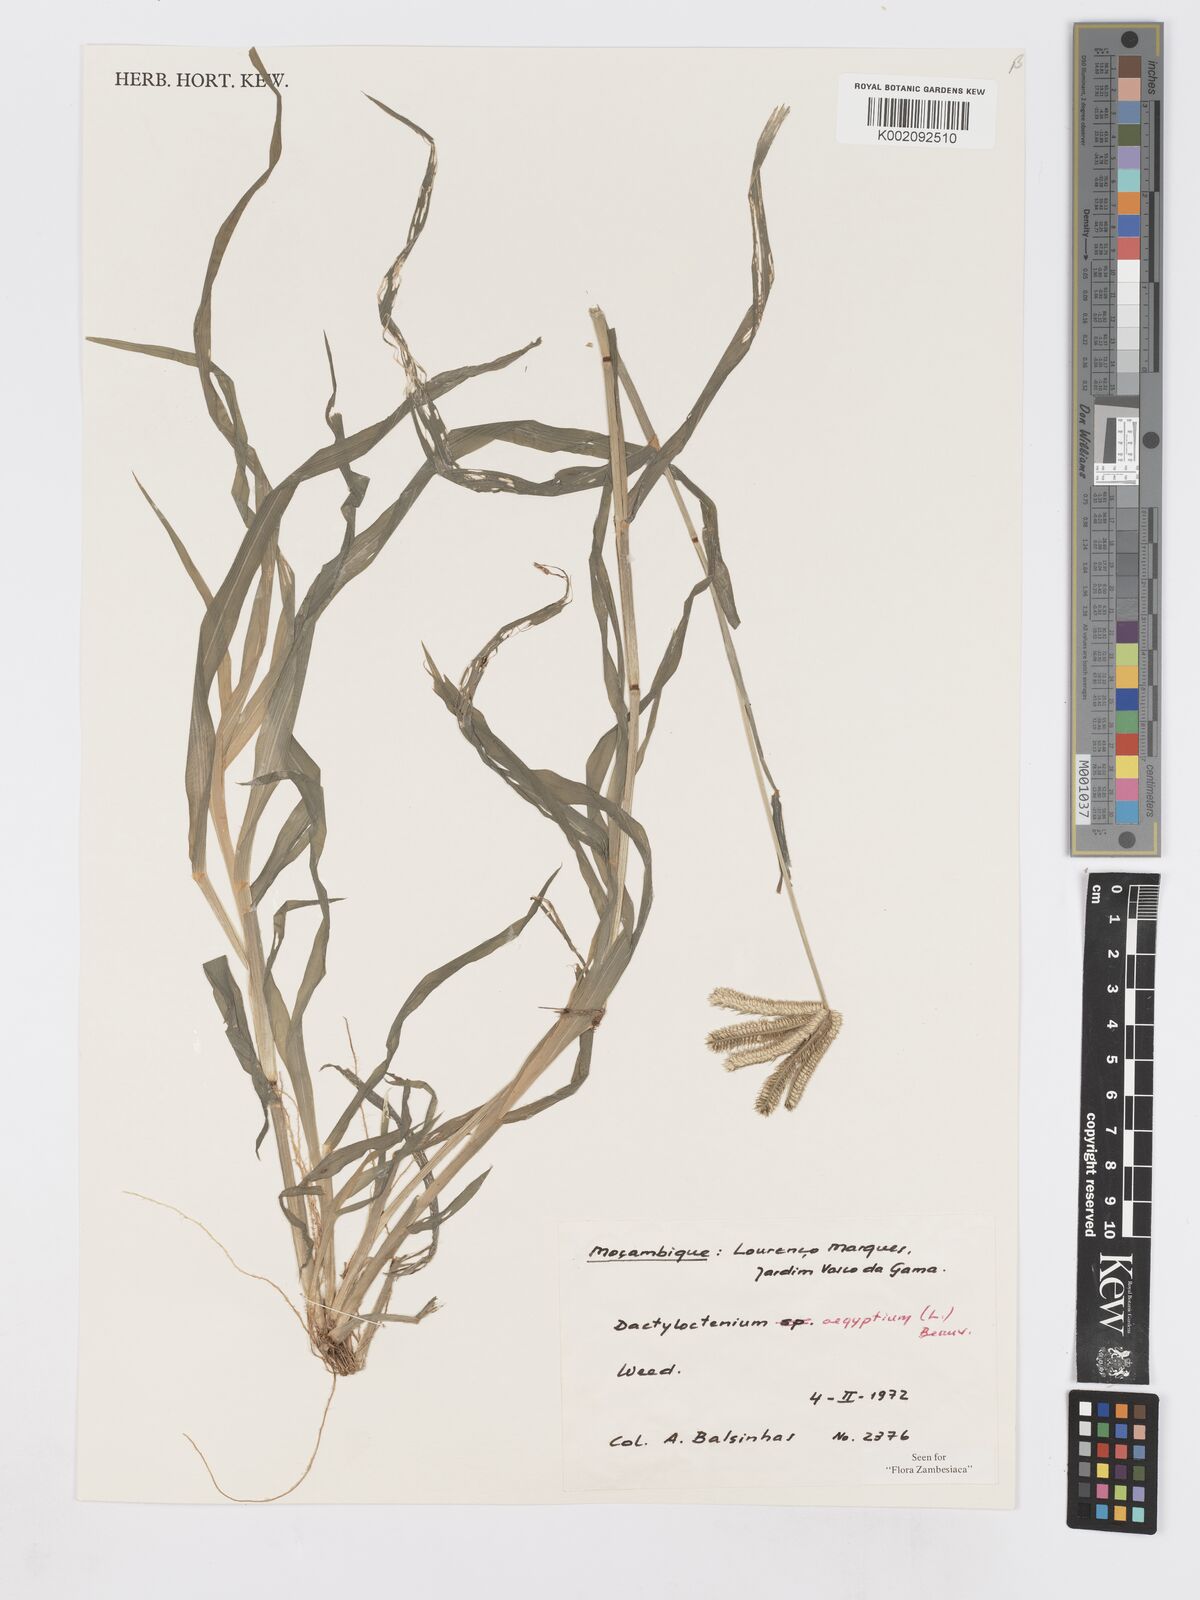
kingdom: Plantae
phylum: Tracheophyta
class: Liliopsida
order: Poales
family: Poaceae
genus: Dactyloctenium
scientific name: Dactyloctenium aegyptium
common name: Egyptian grass
